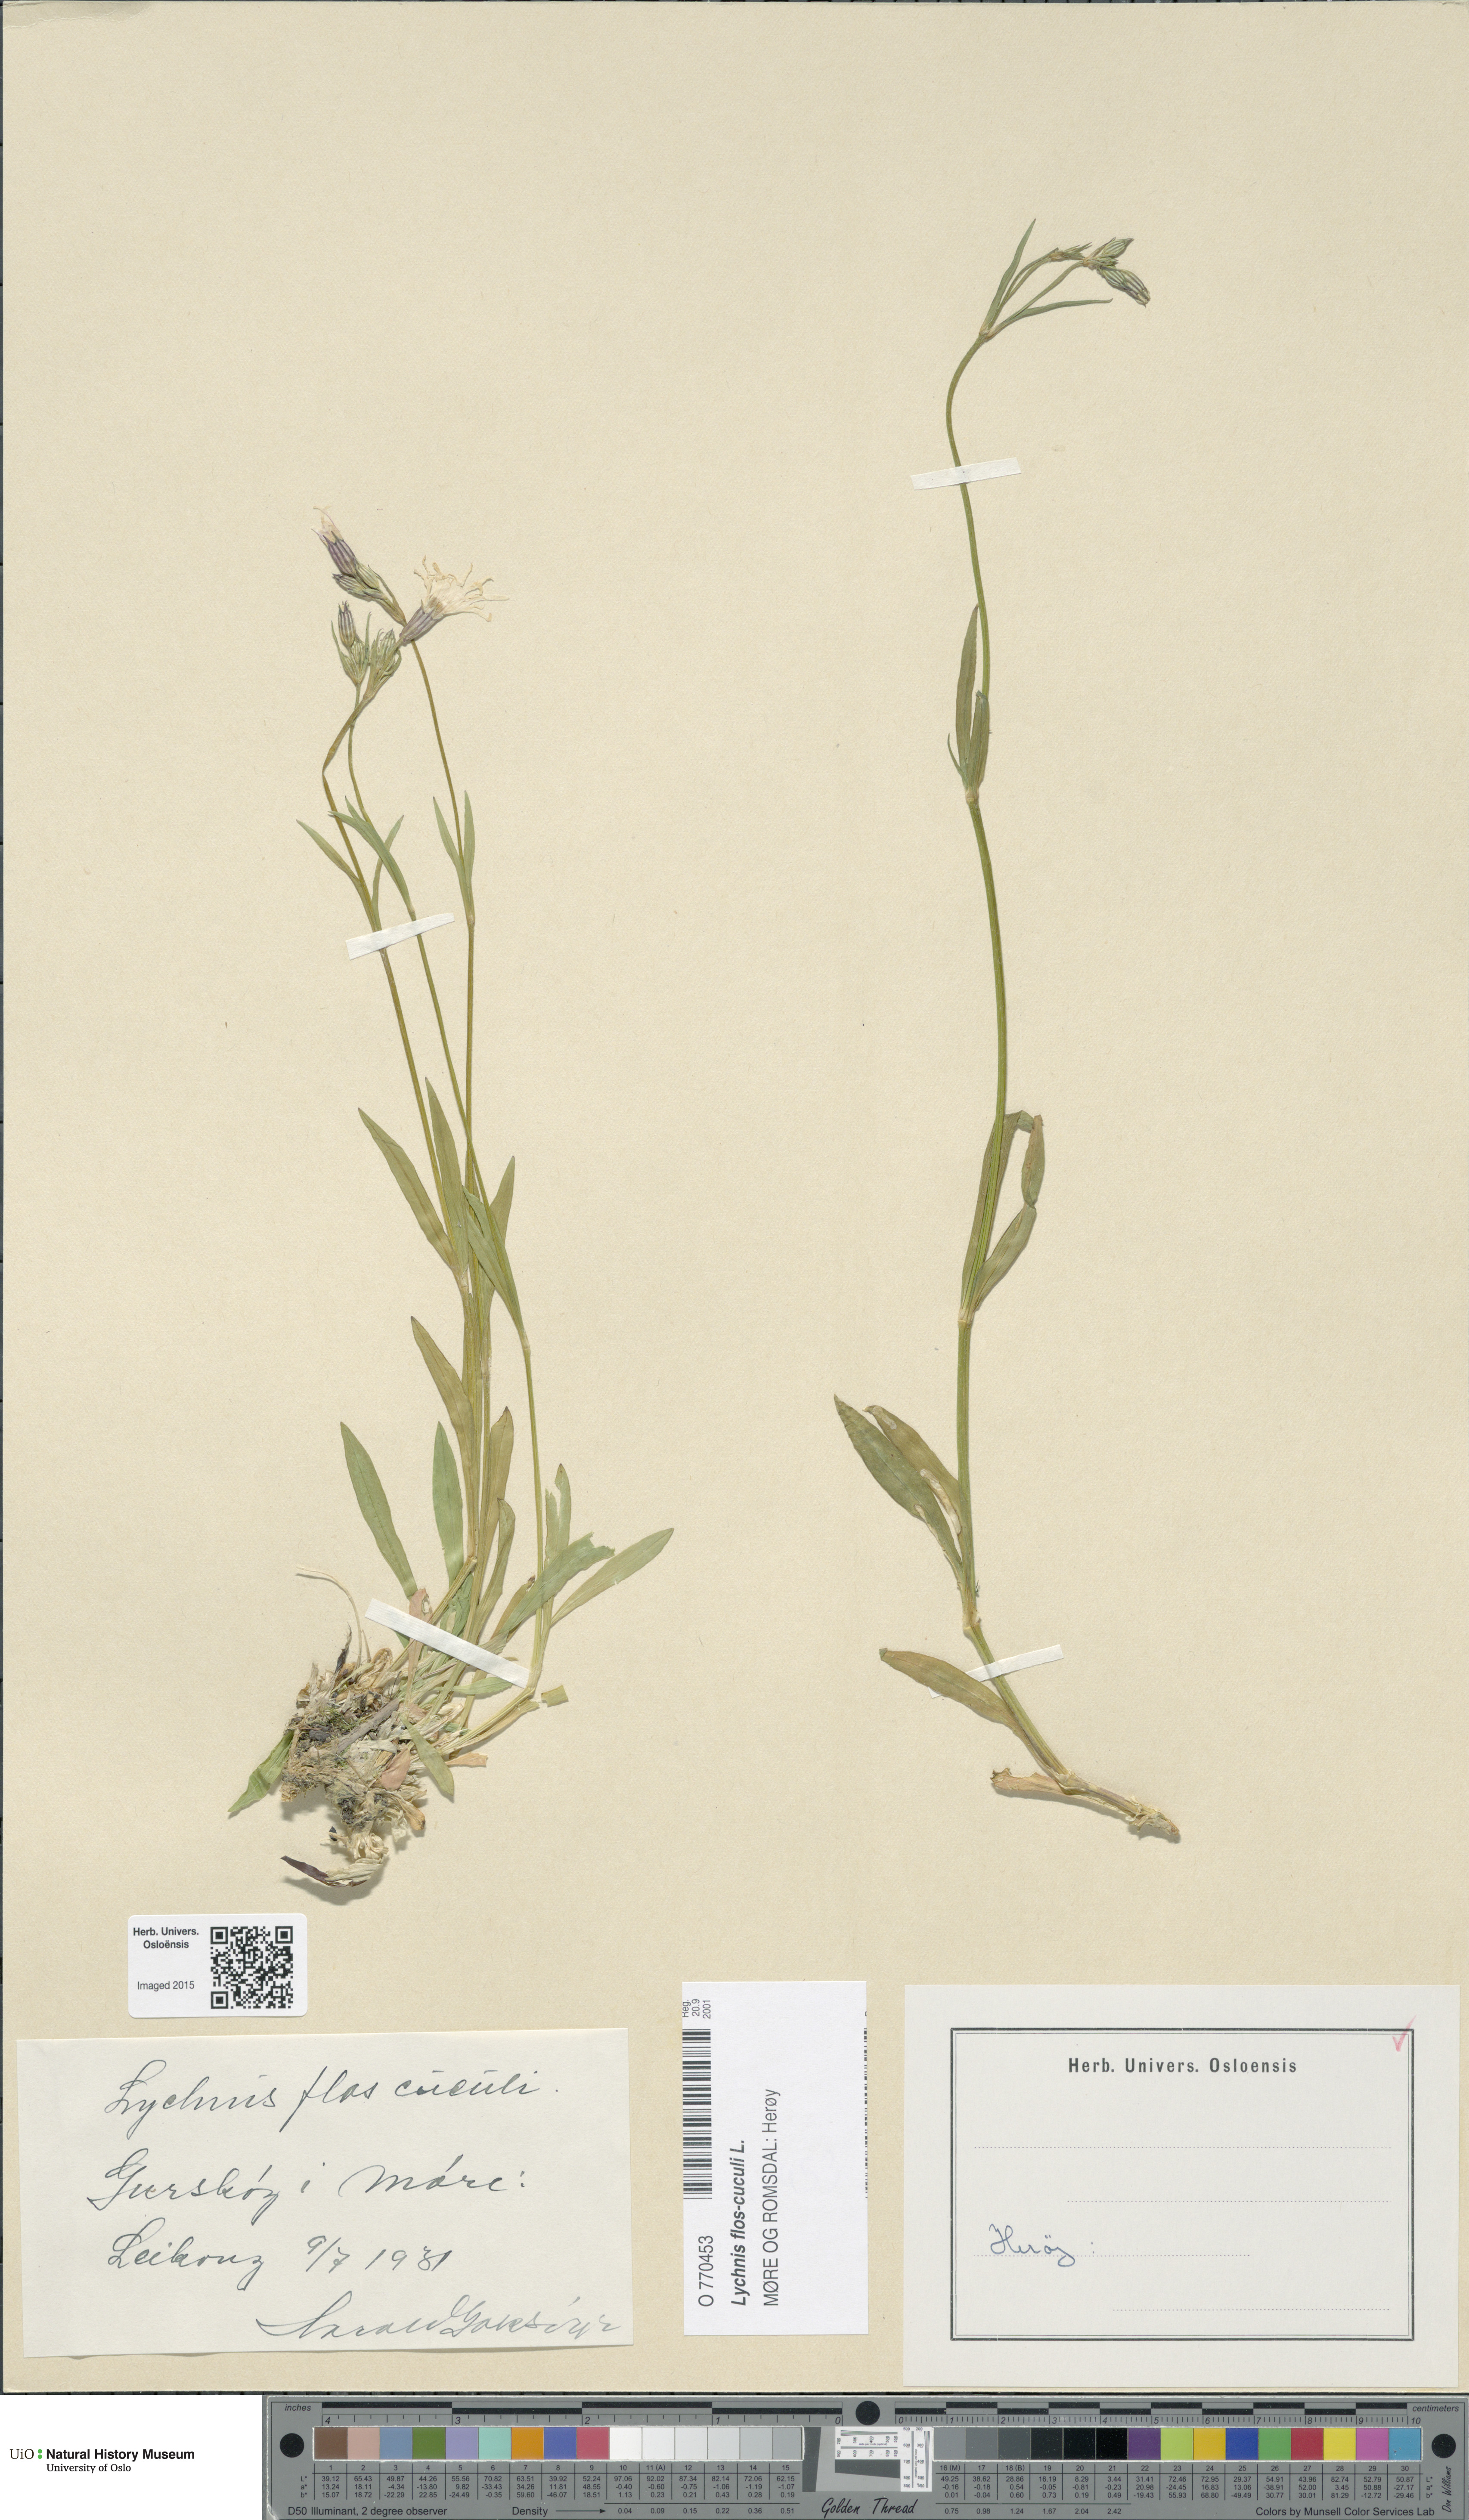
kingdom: Plantae
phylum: Tracheophyta
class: Magnoliopsida
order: Caryophyllales
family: Caryophyllaceae
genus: Silene
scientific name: Silene flos-cuculi
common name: Ragged-robin
